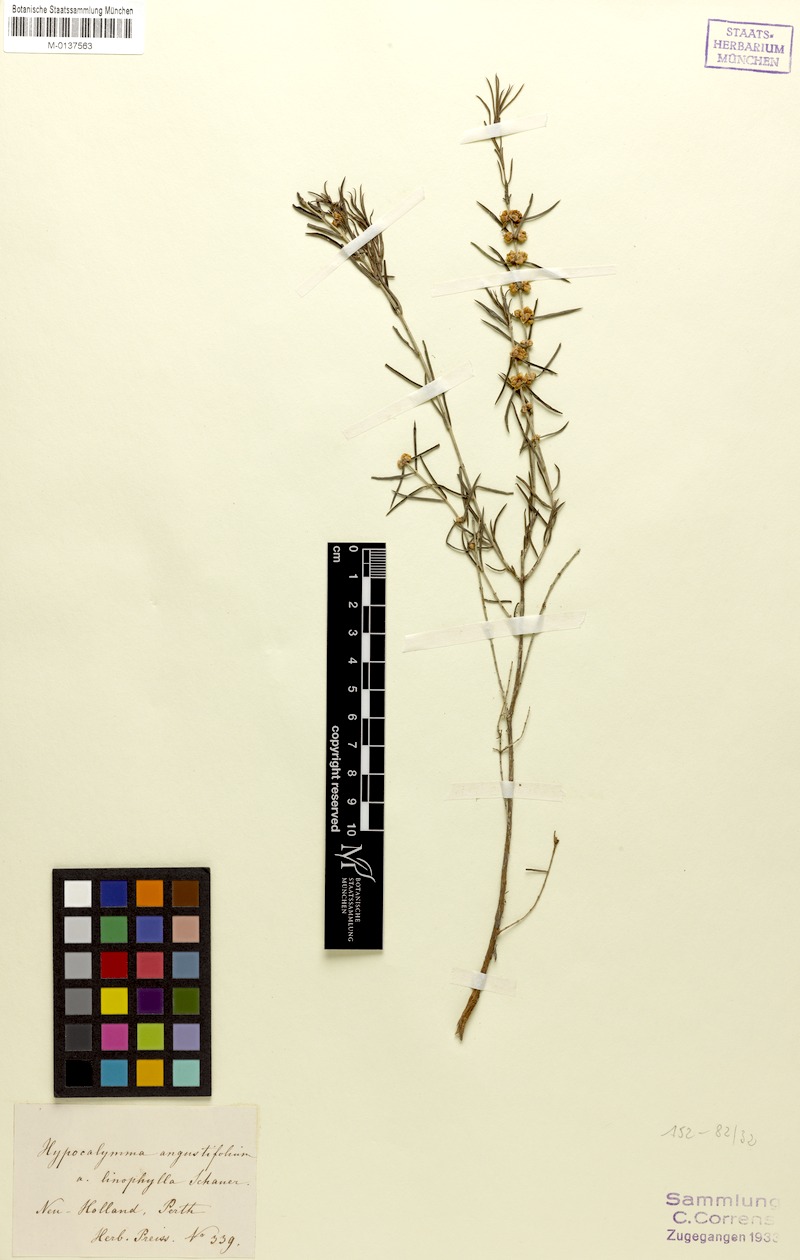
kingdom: Plantae
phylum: Tracheophyta
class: Magnoliopsida
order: Myrtales
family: Myrtaceae
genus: Hypocalymma
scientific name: Hypocalymma angustifolium
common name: White myrtle
